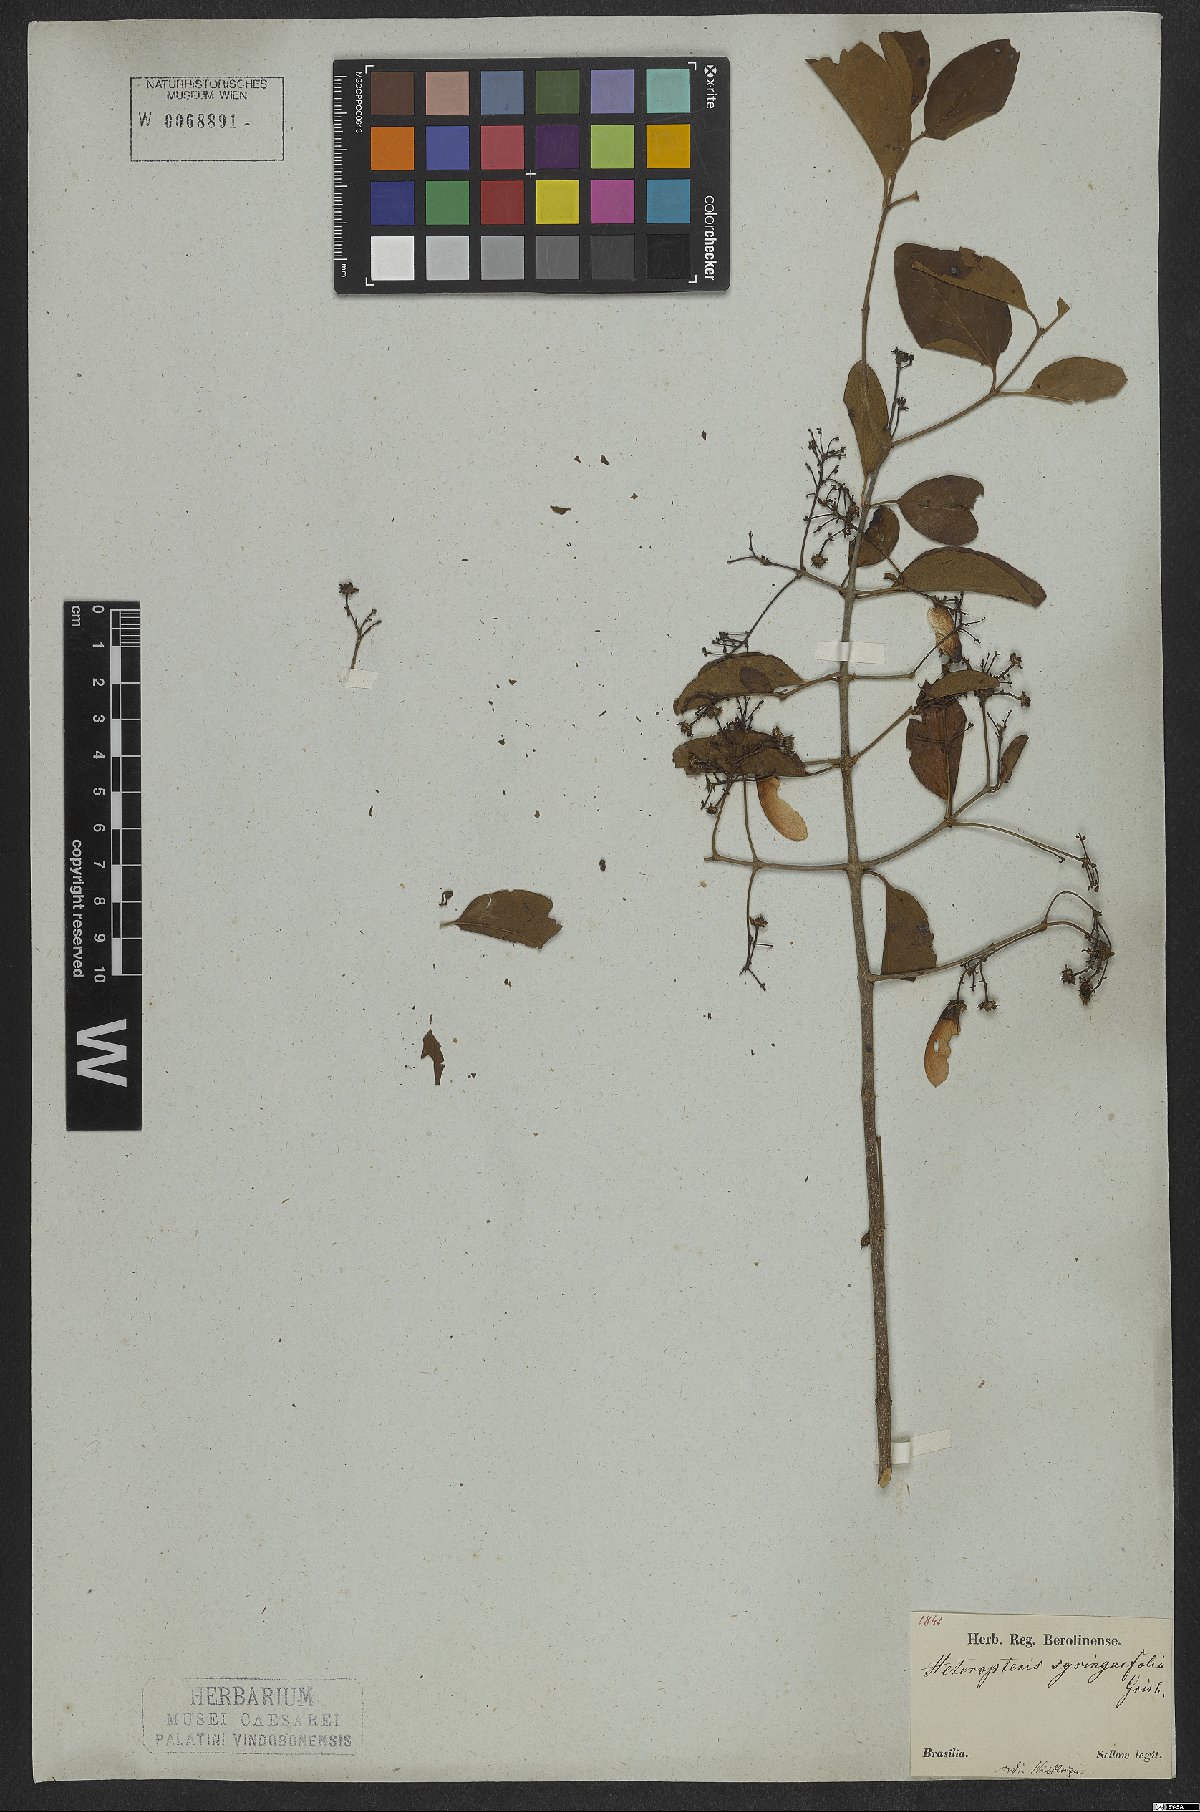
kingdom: Plantae
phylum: Tracheophyta
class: Magnoliopsida
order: Malpighiales
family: Malpighiaceae
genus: Heteropterys
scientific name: Heteropterys syringifolia
